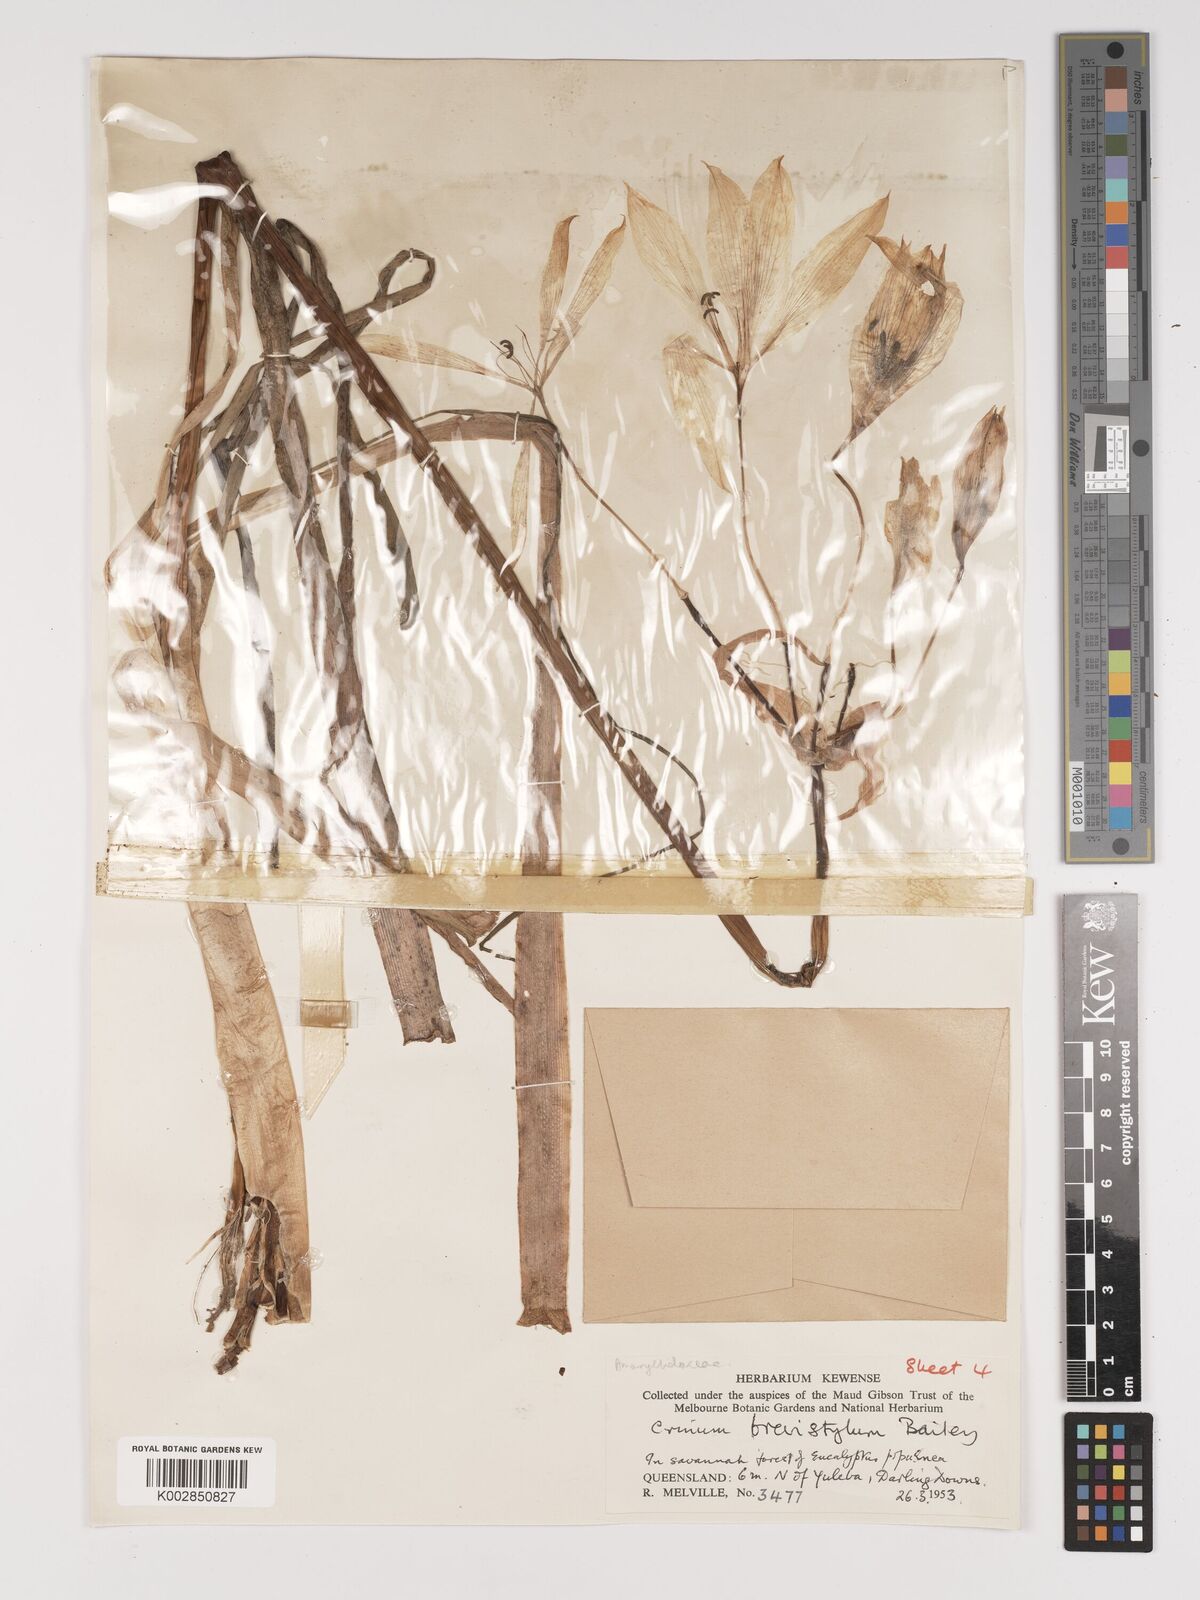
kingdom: Plantae
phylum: Tracheophyta
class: Liliopsida
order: Asparagales
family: Amaryllidaceae
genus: Crinum
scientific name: Crinum venosum
